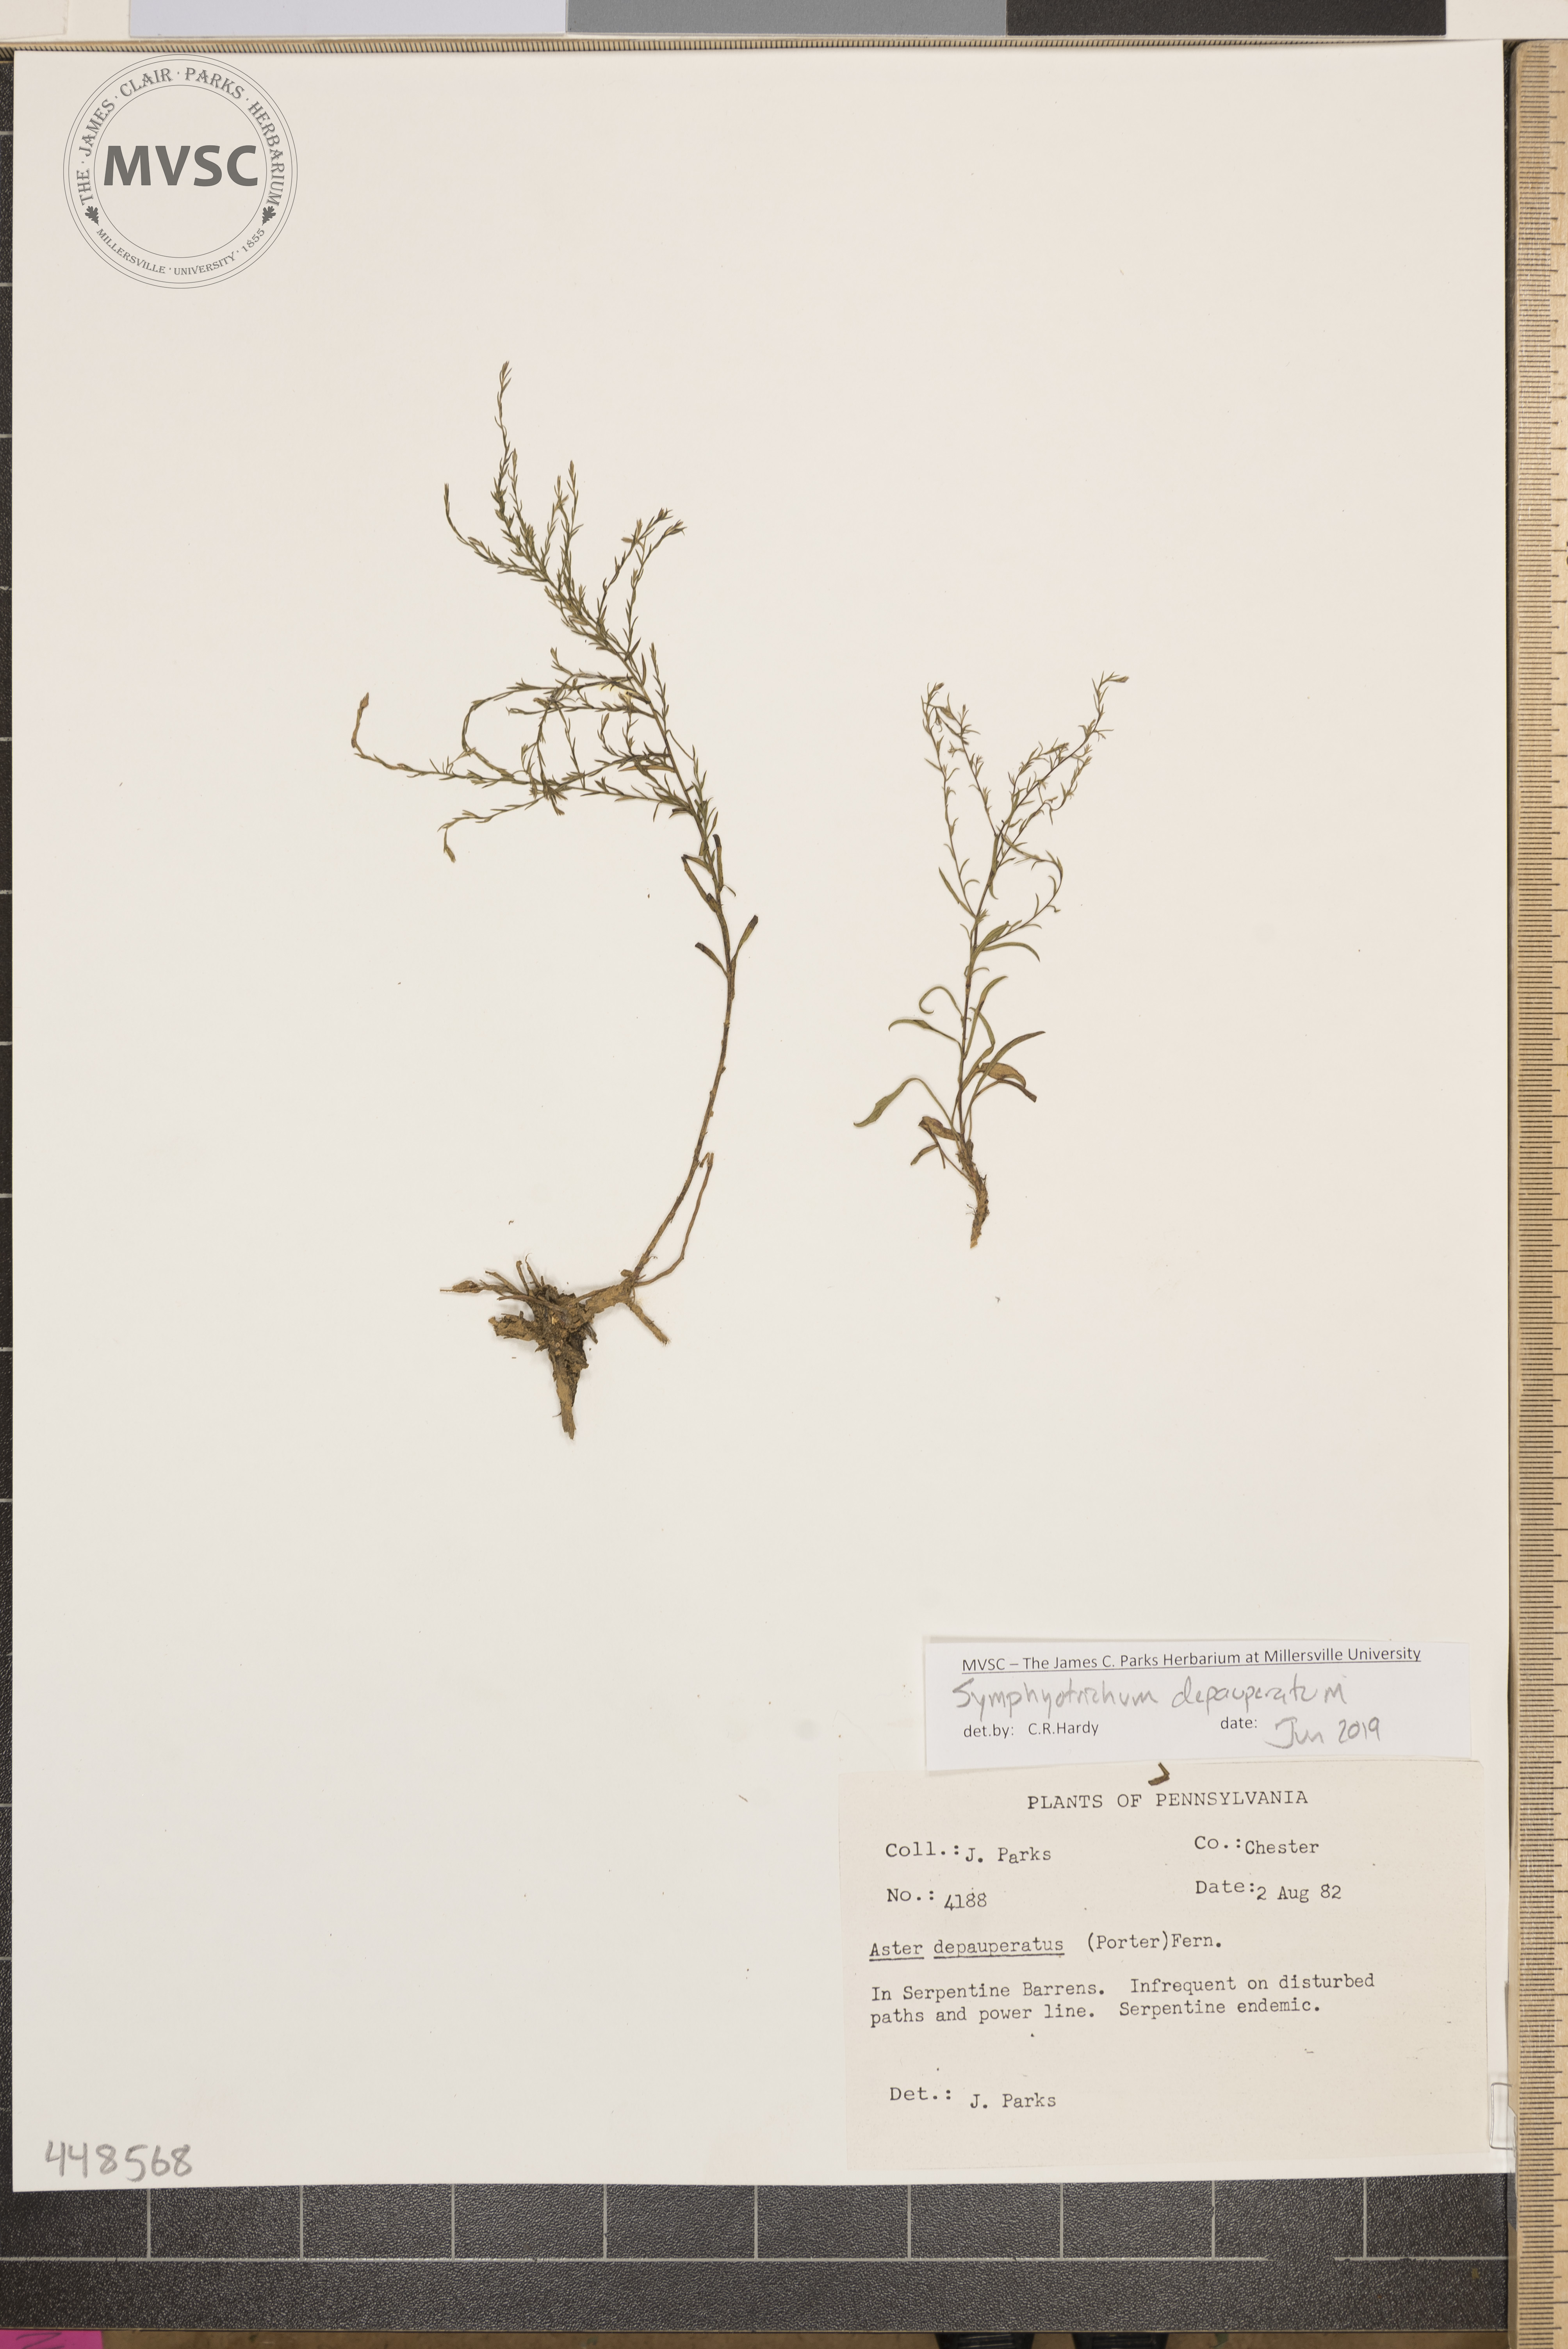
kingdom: Plantae
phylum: Tracheophyta
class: Magnoliopsida
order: Asterales
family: Asteraceae
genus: Symphyotrichum
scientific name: Symphyotrichum depauperatum
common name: Serpentine Aster
